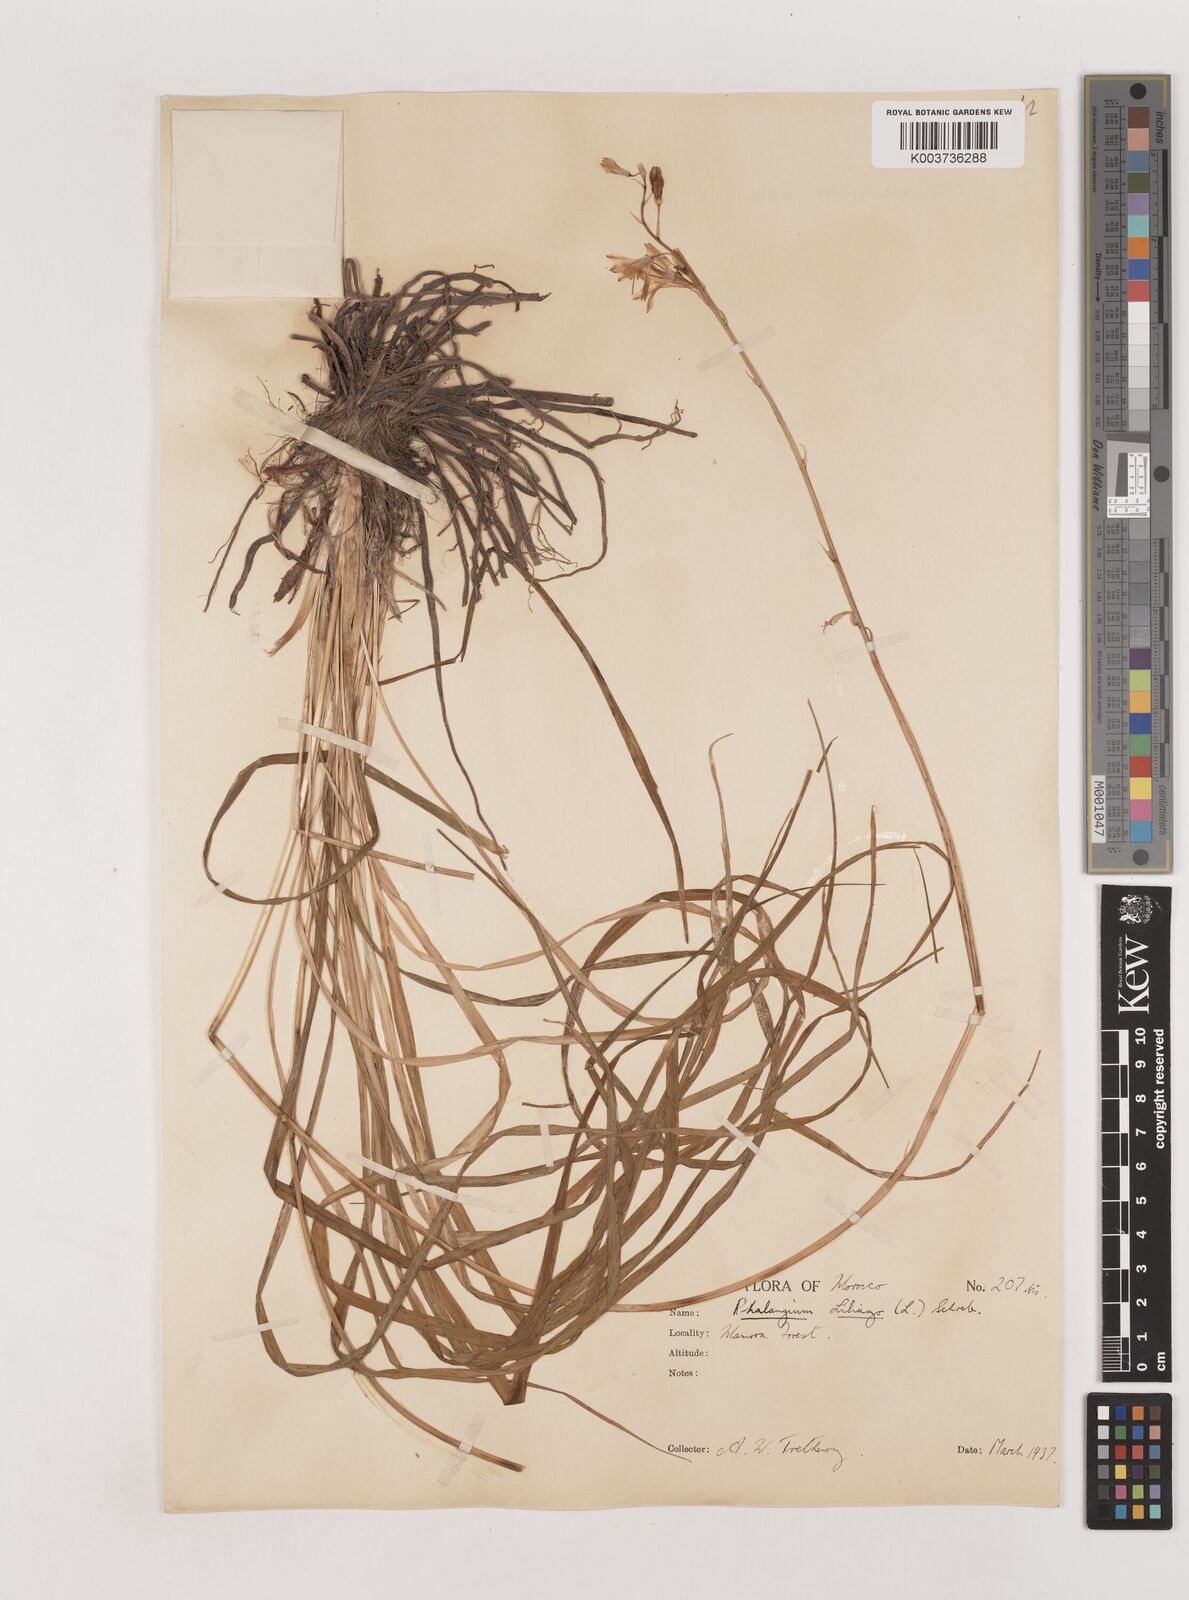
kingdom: Plantae
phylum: Tracheophyta
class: Liliopsida
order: Asparagales
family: Asparagaceae
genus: Anthericum
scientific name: Anthericum liliago
